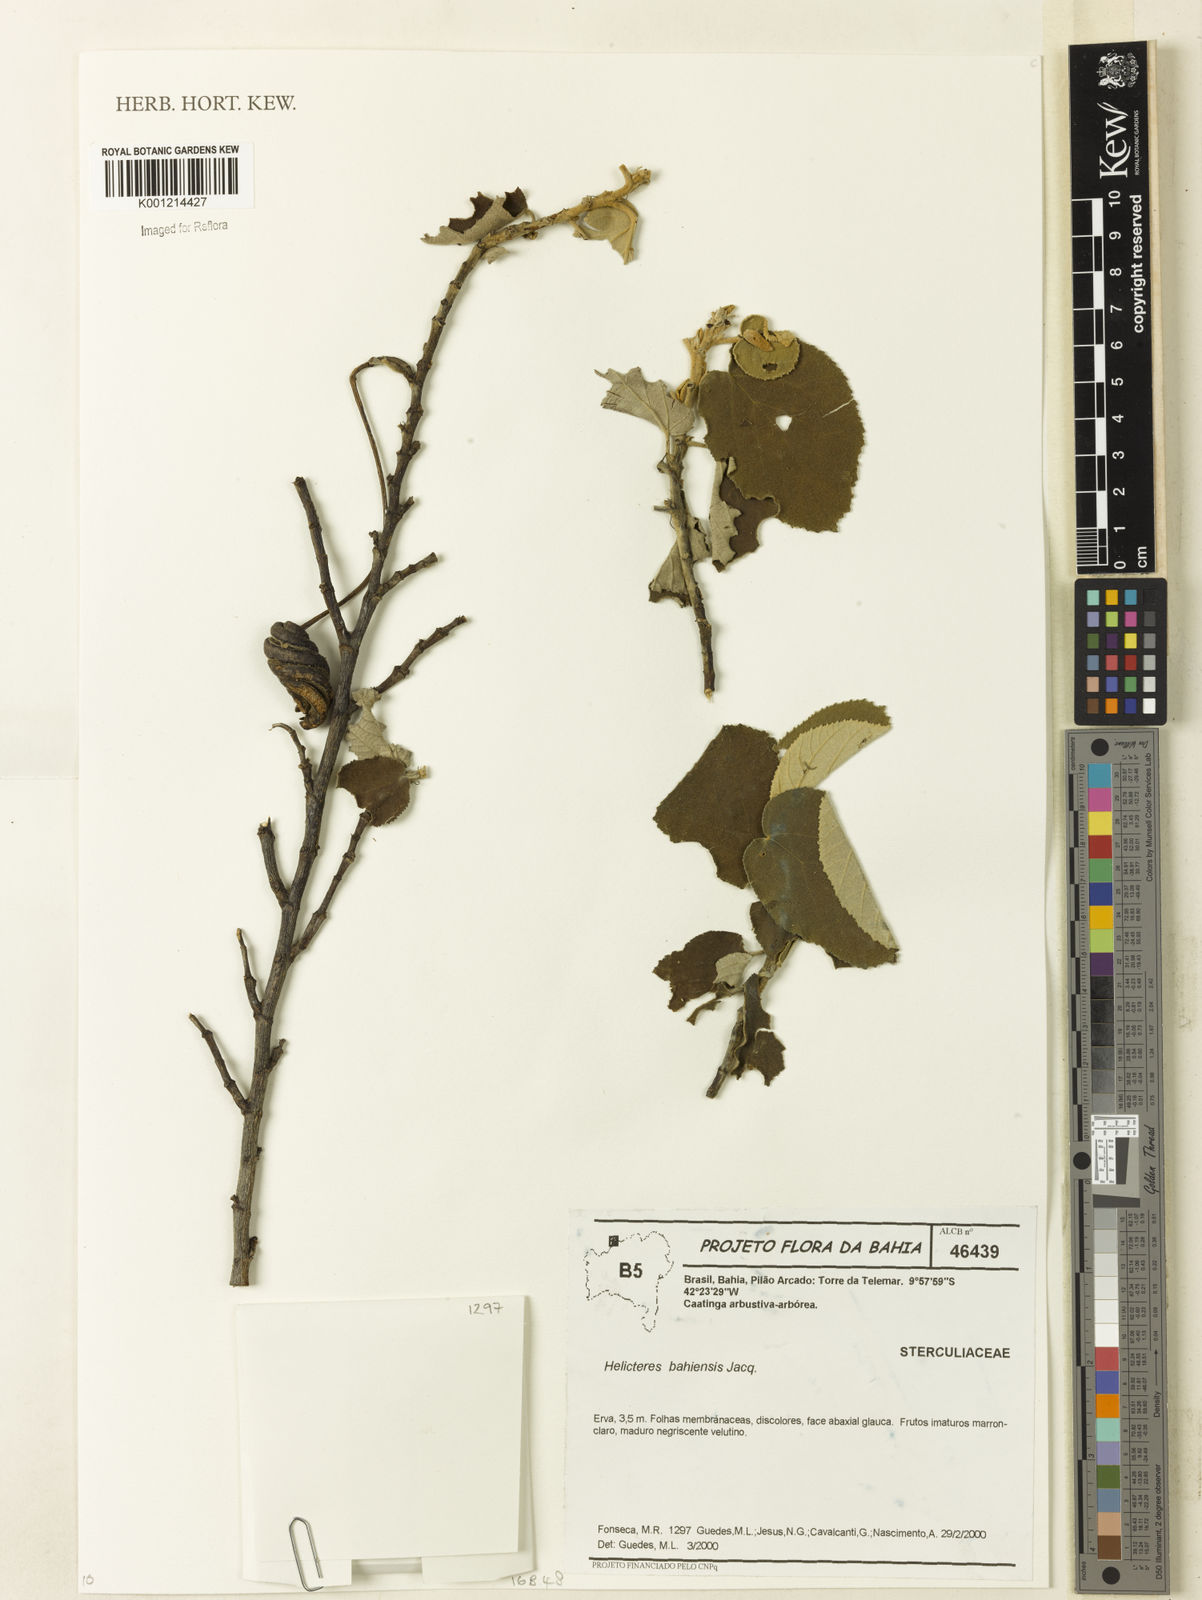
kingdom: Plantae
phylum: Tracheophyta
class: Magnoliopsida
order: Malvales
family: Malvaceae
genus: Helicteres
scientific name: Helicteres
